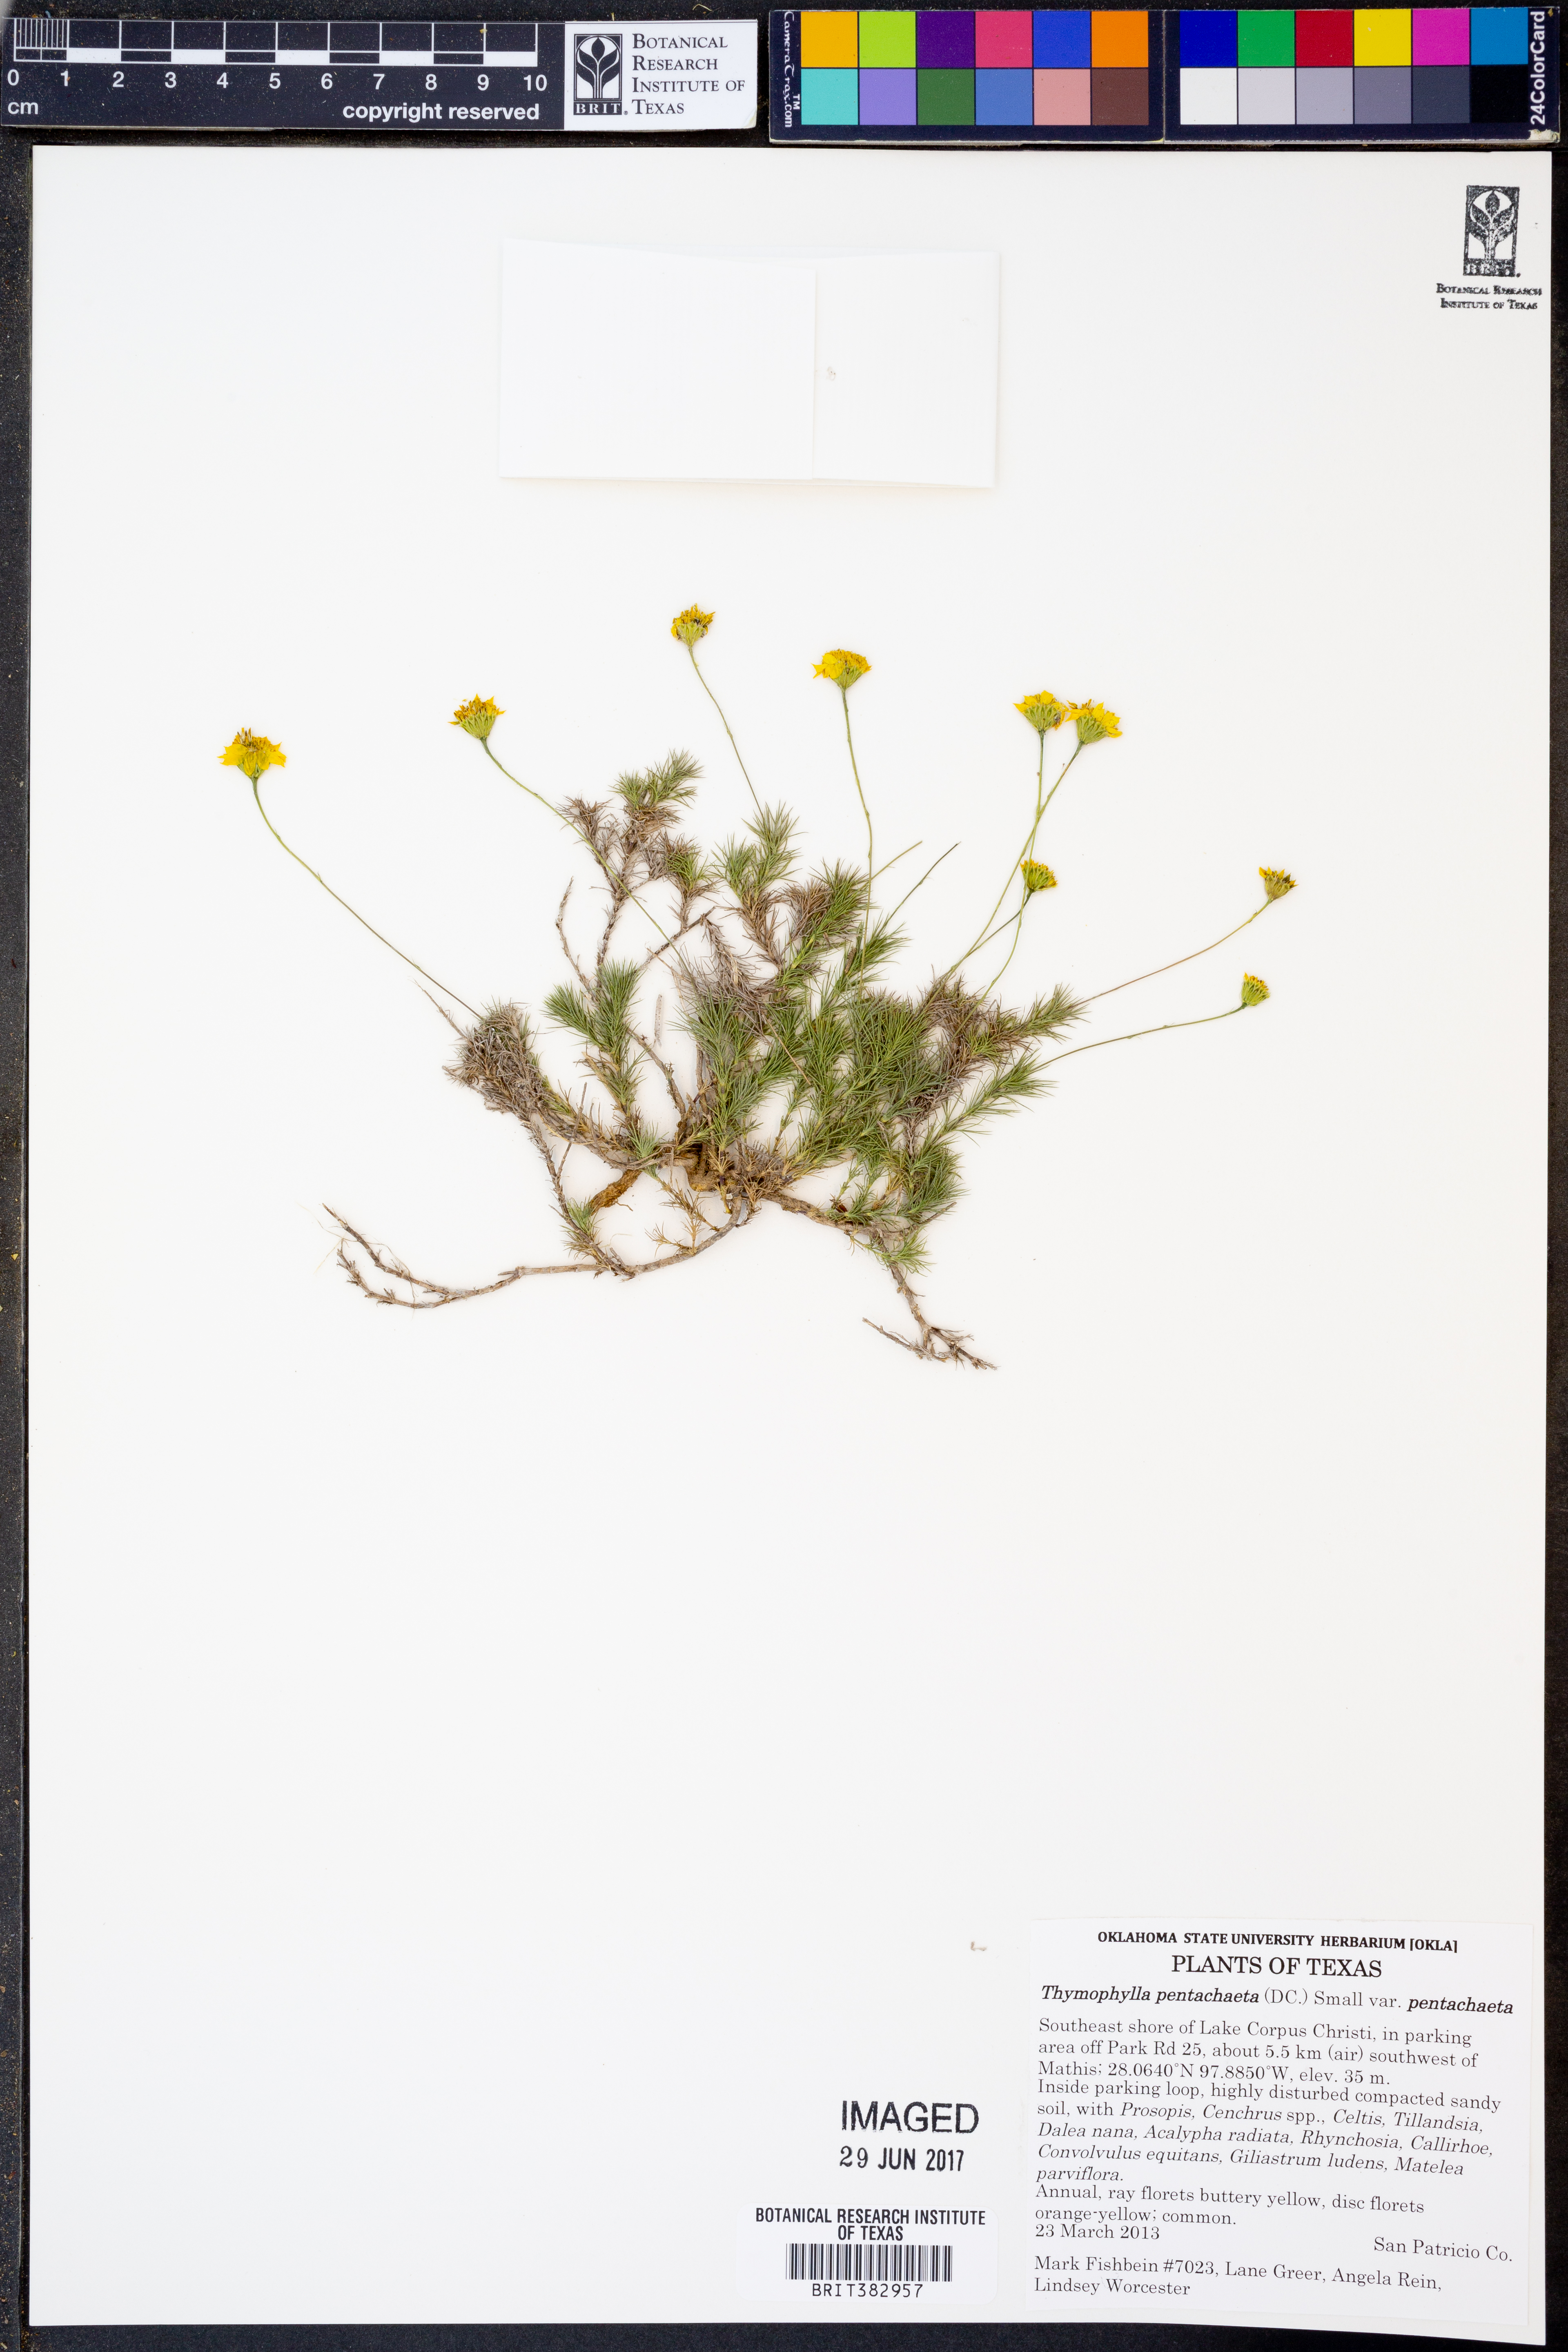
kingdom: Plantae
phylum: Tracheophyta
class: Magnoliopsida
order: Asterales
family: Asteraceae
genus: Thymophylla
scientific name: Thymophylla pentachaeta
